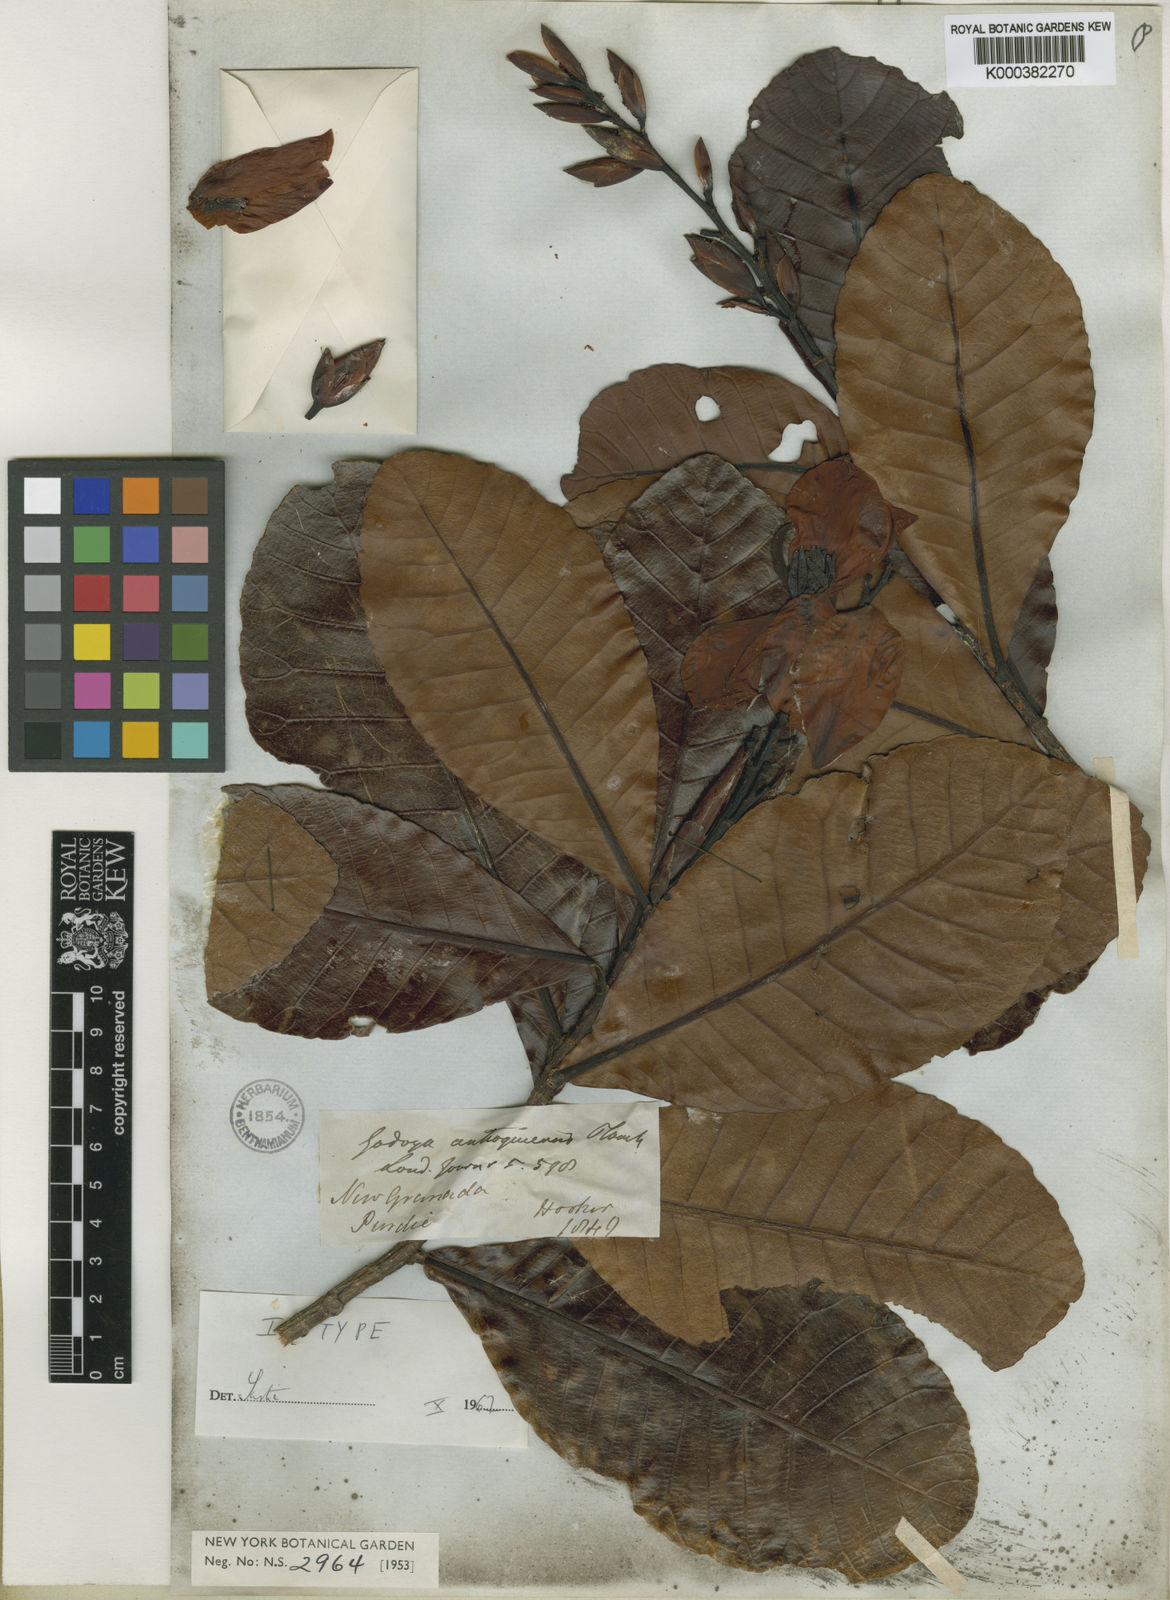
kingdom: Plantae
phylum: Tracheophyta
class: Magnoliopsida
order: Malpighiales
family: Ochnaceae
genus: Godoya
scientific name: Godoya antioquiensis
